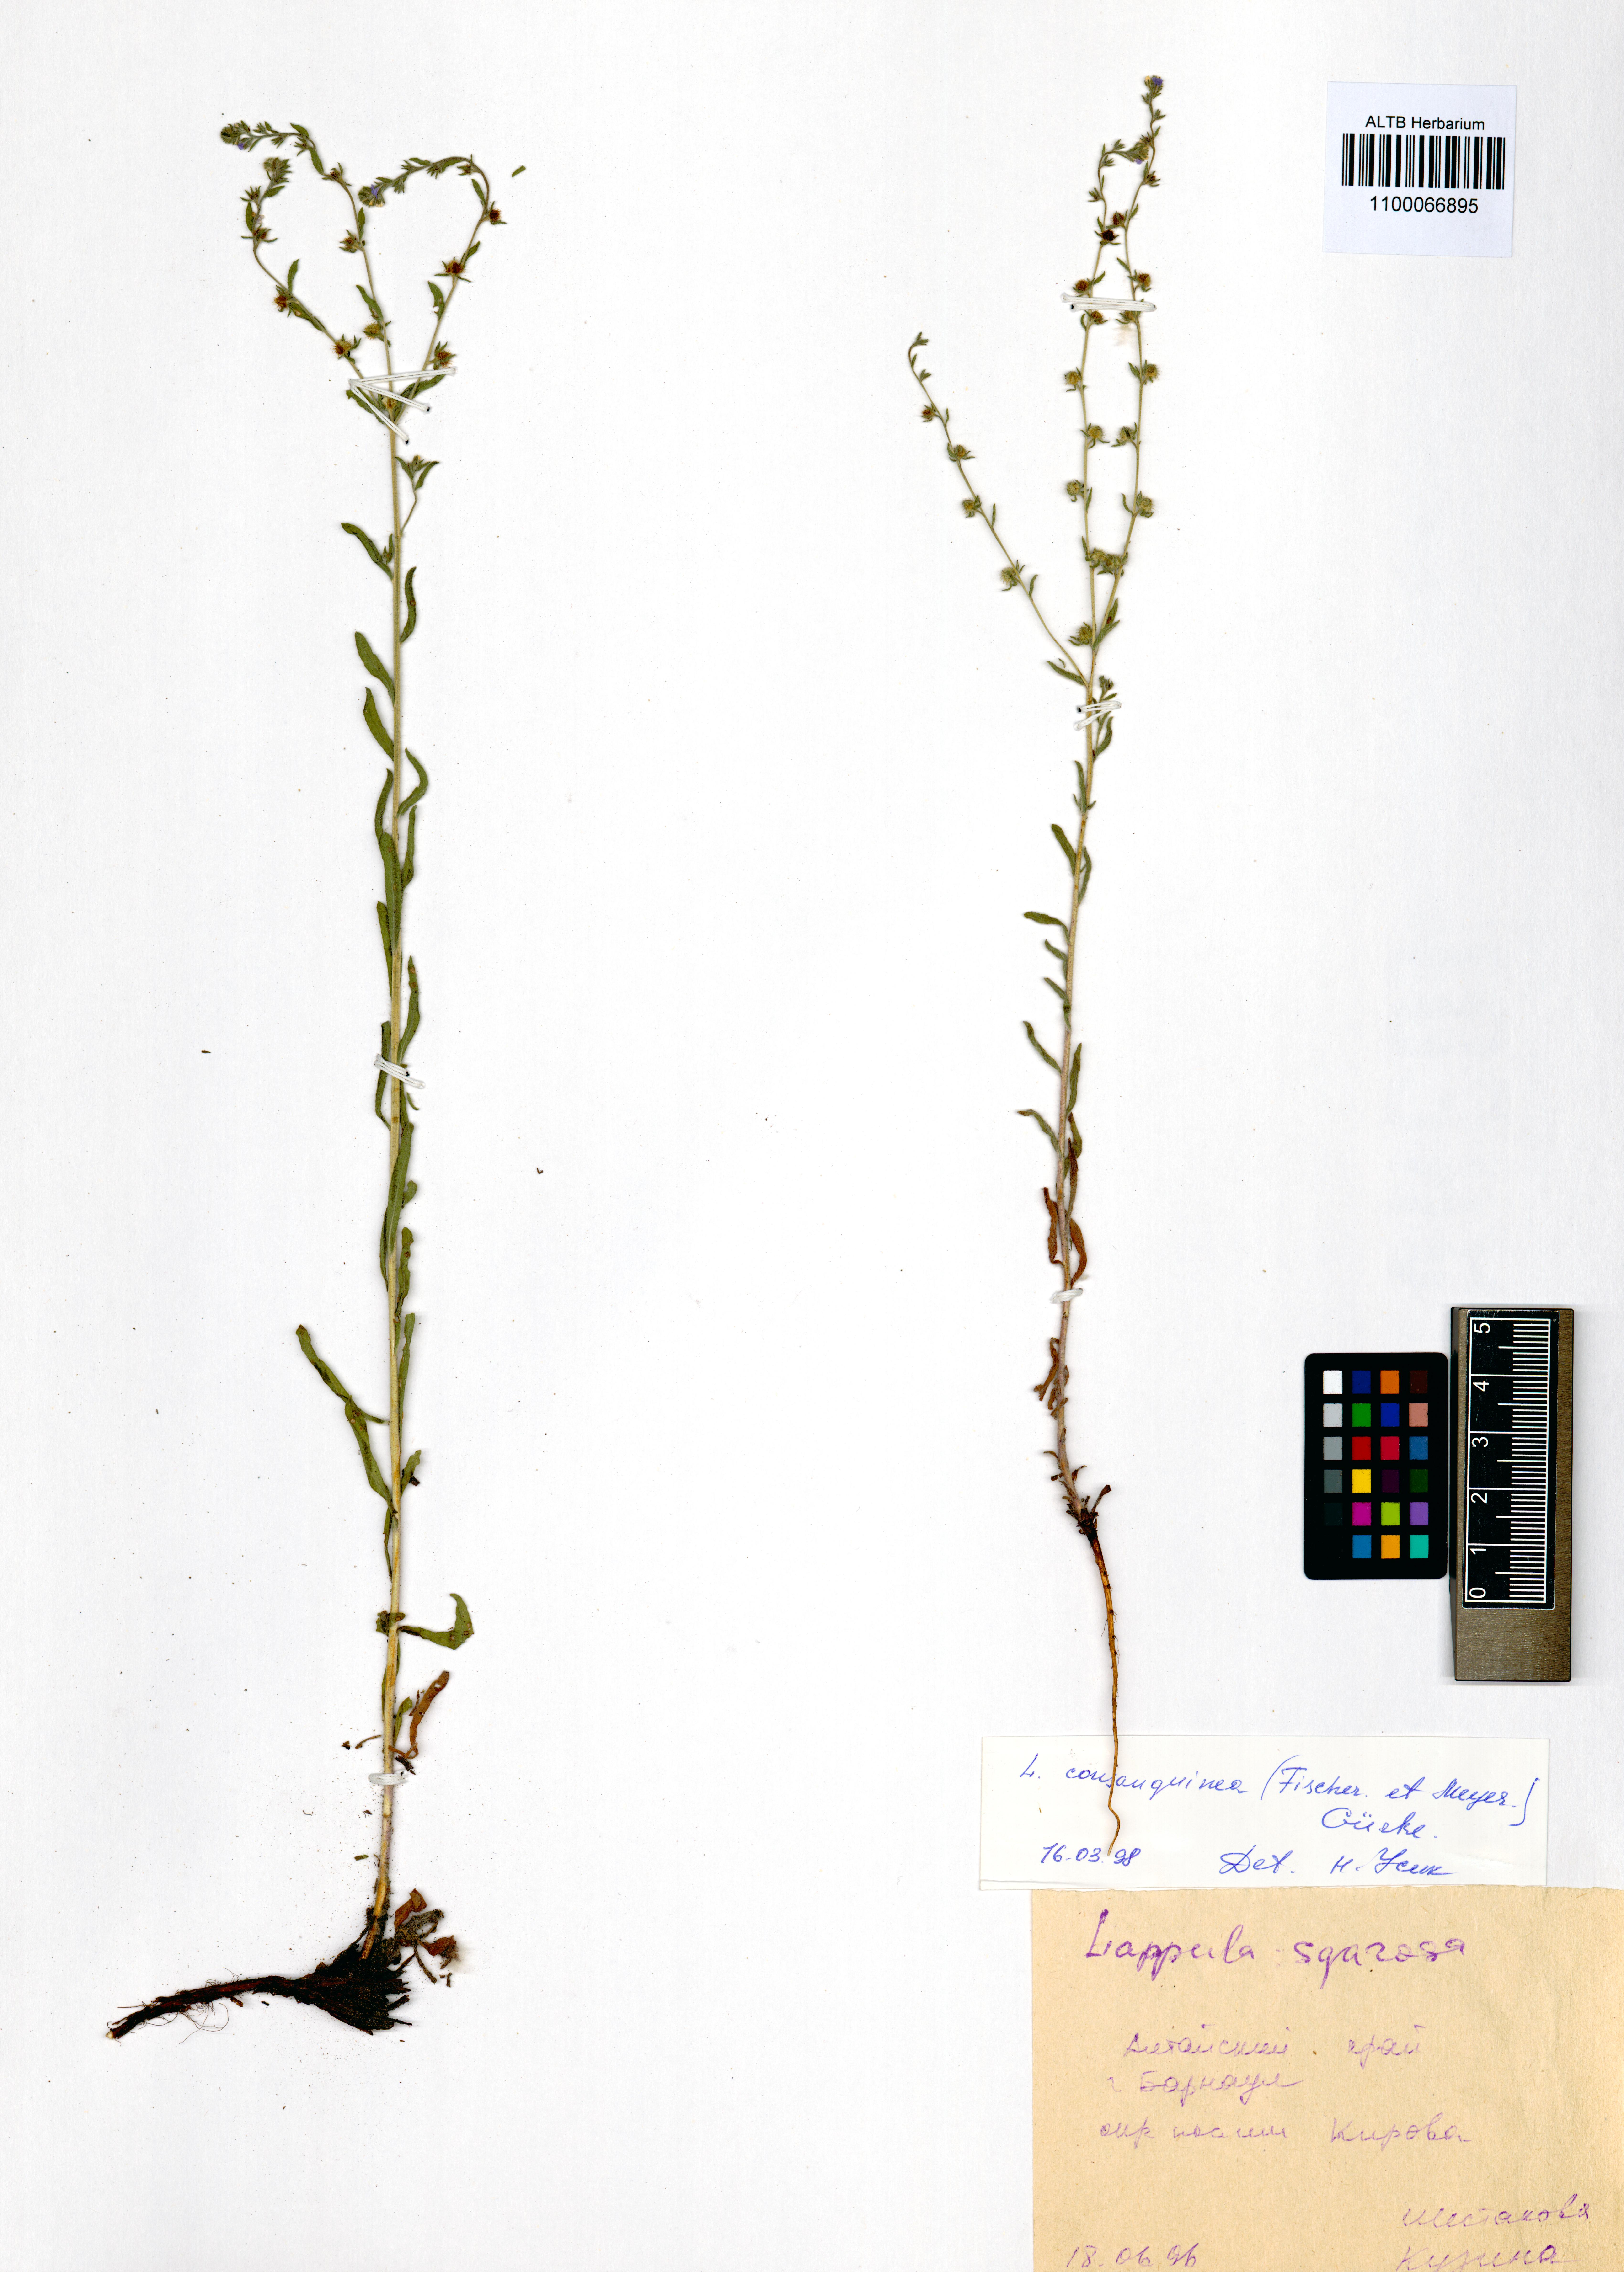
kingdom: Plantae
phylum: Tracheophyta
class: Magnoliopsida
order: Boraginales
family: Boraginaceae
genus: Lappula
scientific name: Lappula squarrosa
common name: European stickseed
